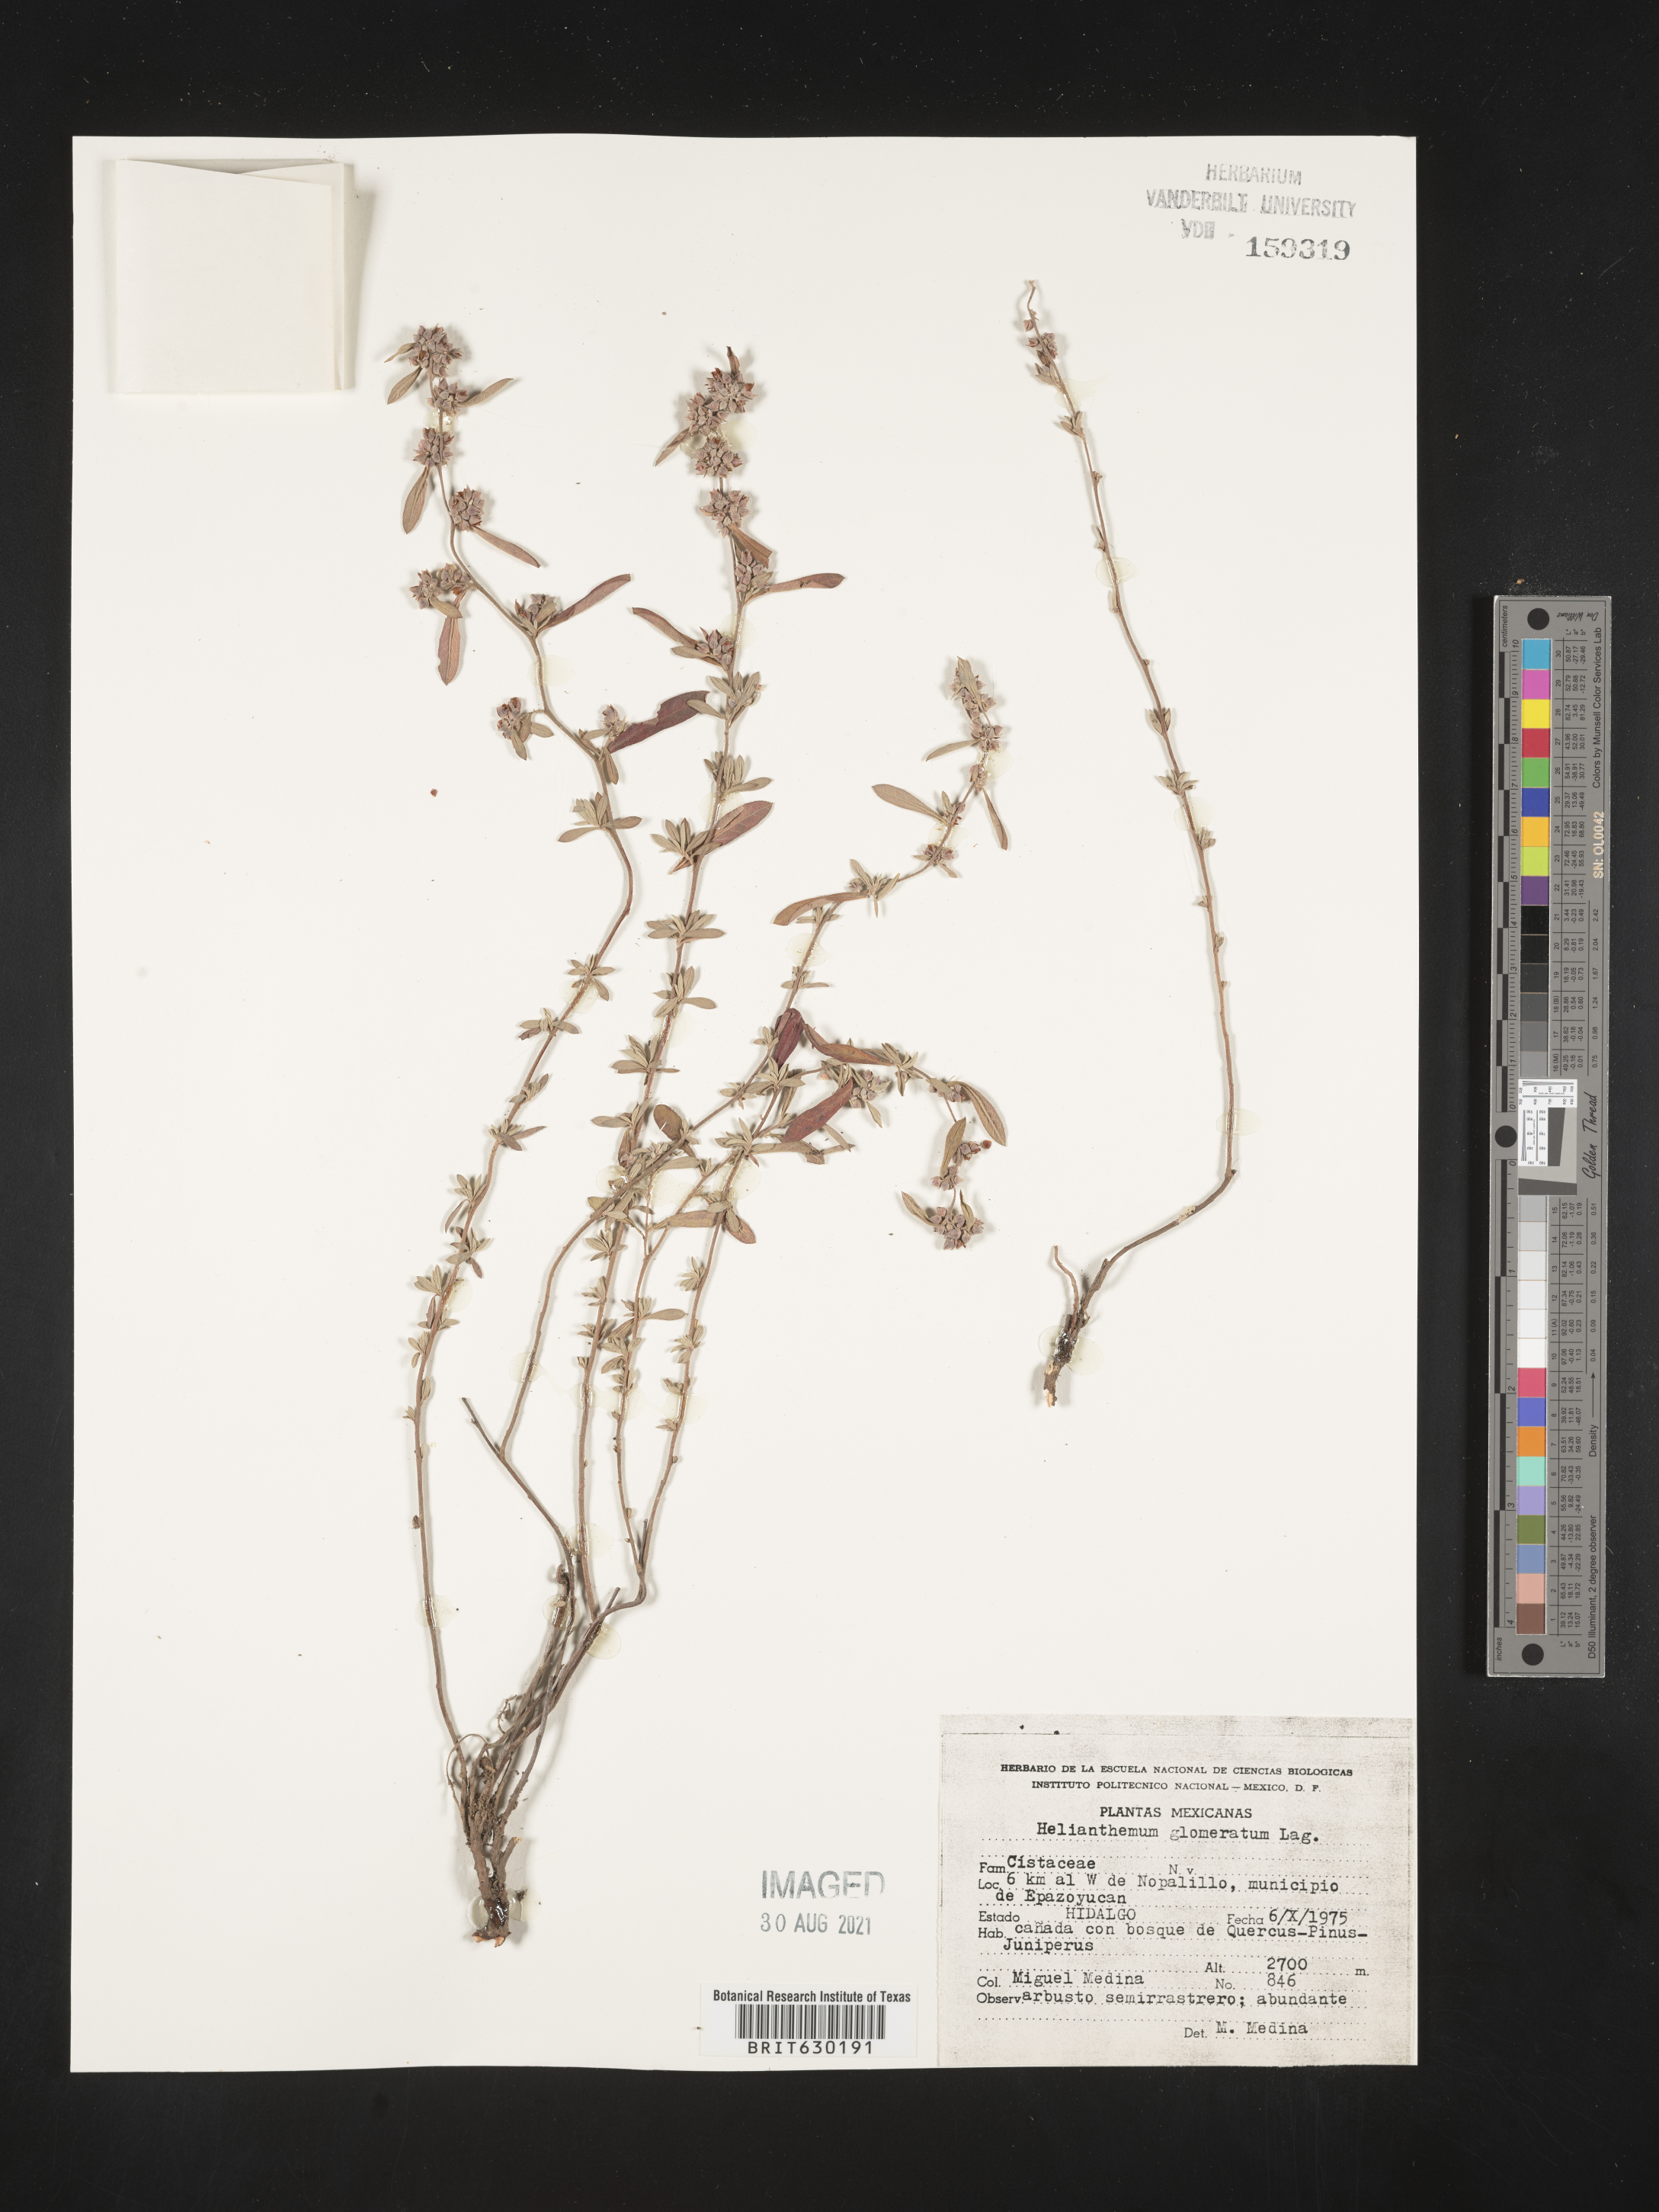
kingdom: Plantae
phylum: Tracheophyta
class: Magnoliopsida
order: Malvales
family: Cistaceae
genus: Helianthemum
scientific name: Helianthemum
